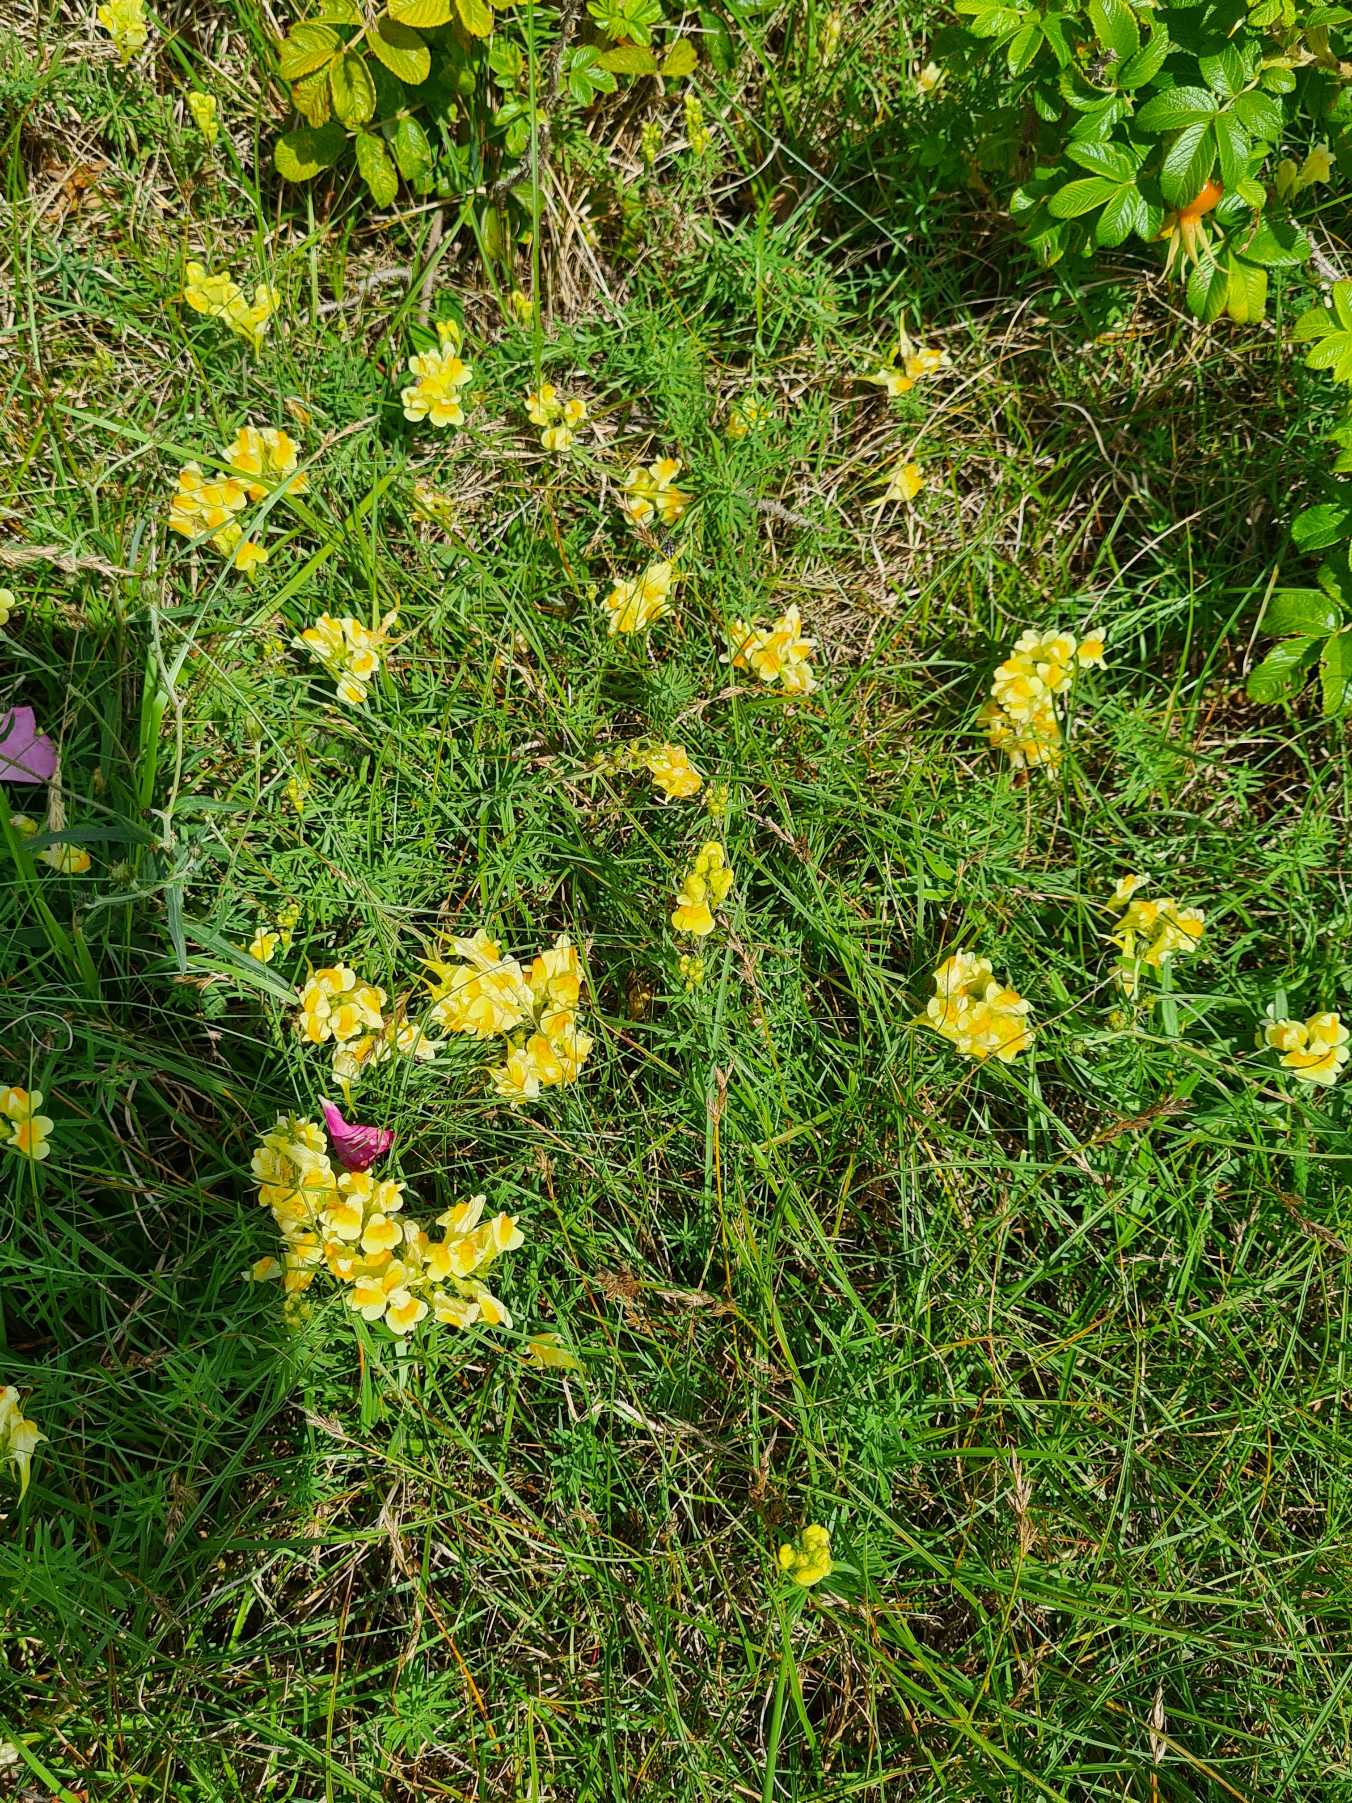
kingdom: Plantae
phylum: Tracheophyta
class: Magnoliopsida
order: Lamiales
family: Plantaginaceae
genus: Linaria
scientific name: Linaria vulgaris
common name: Almindelig torskemund
